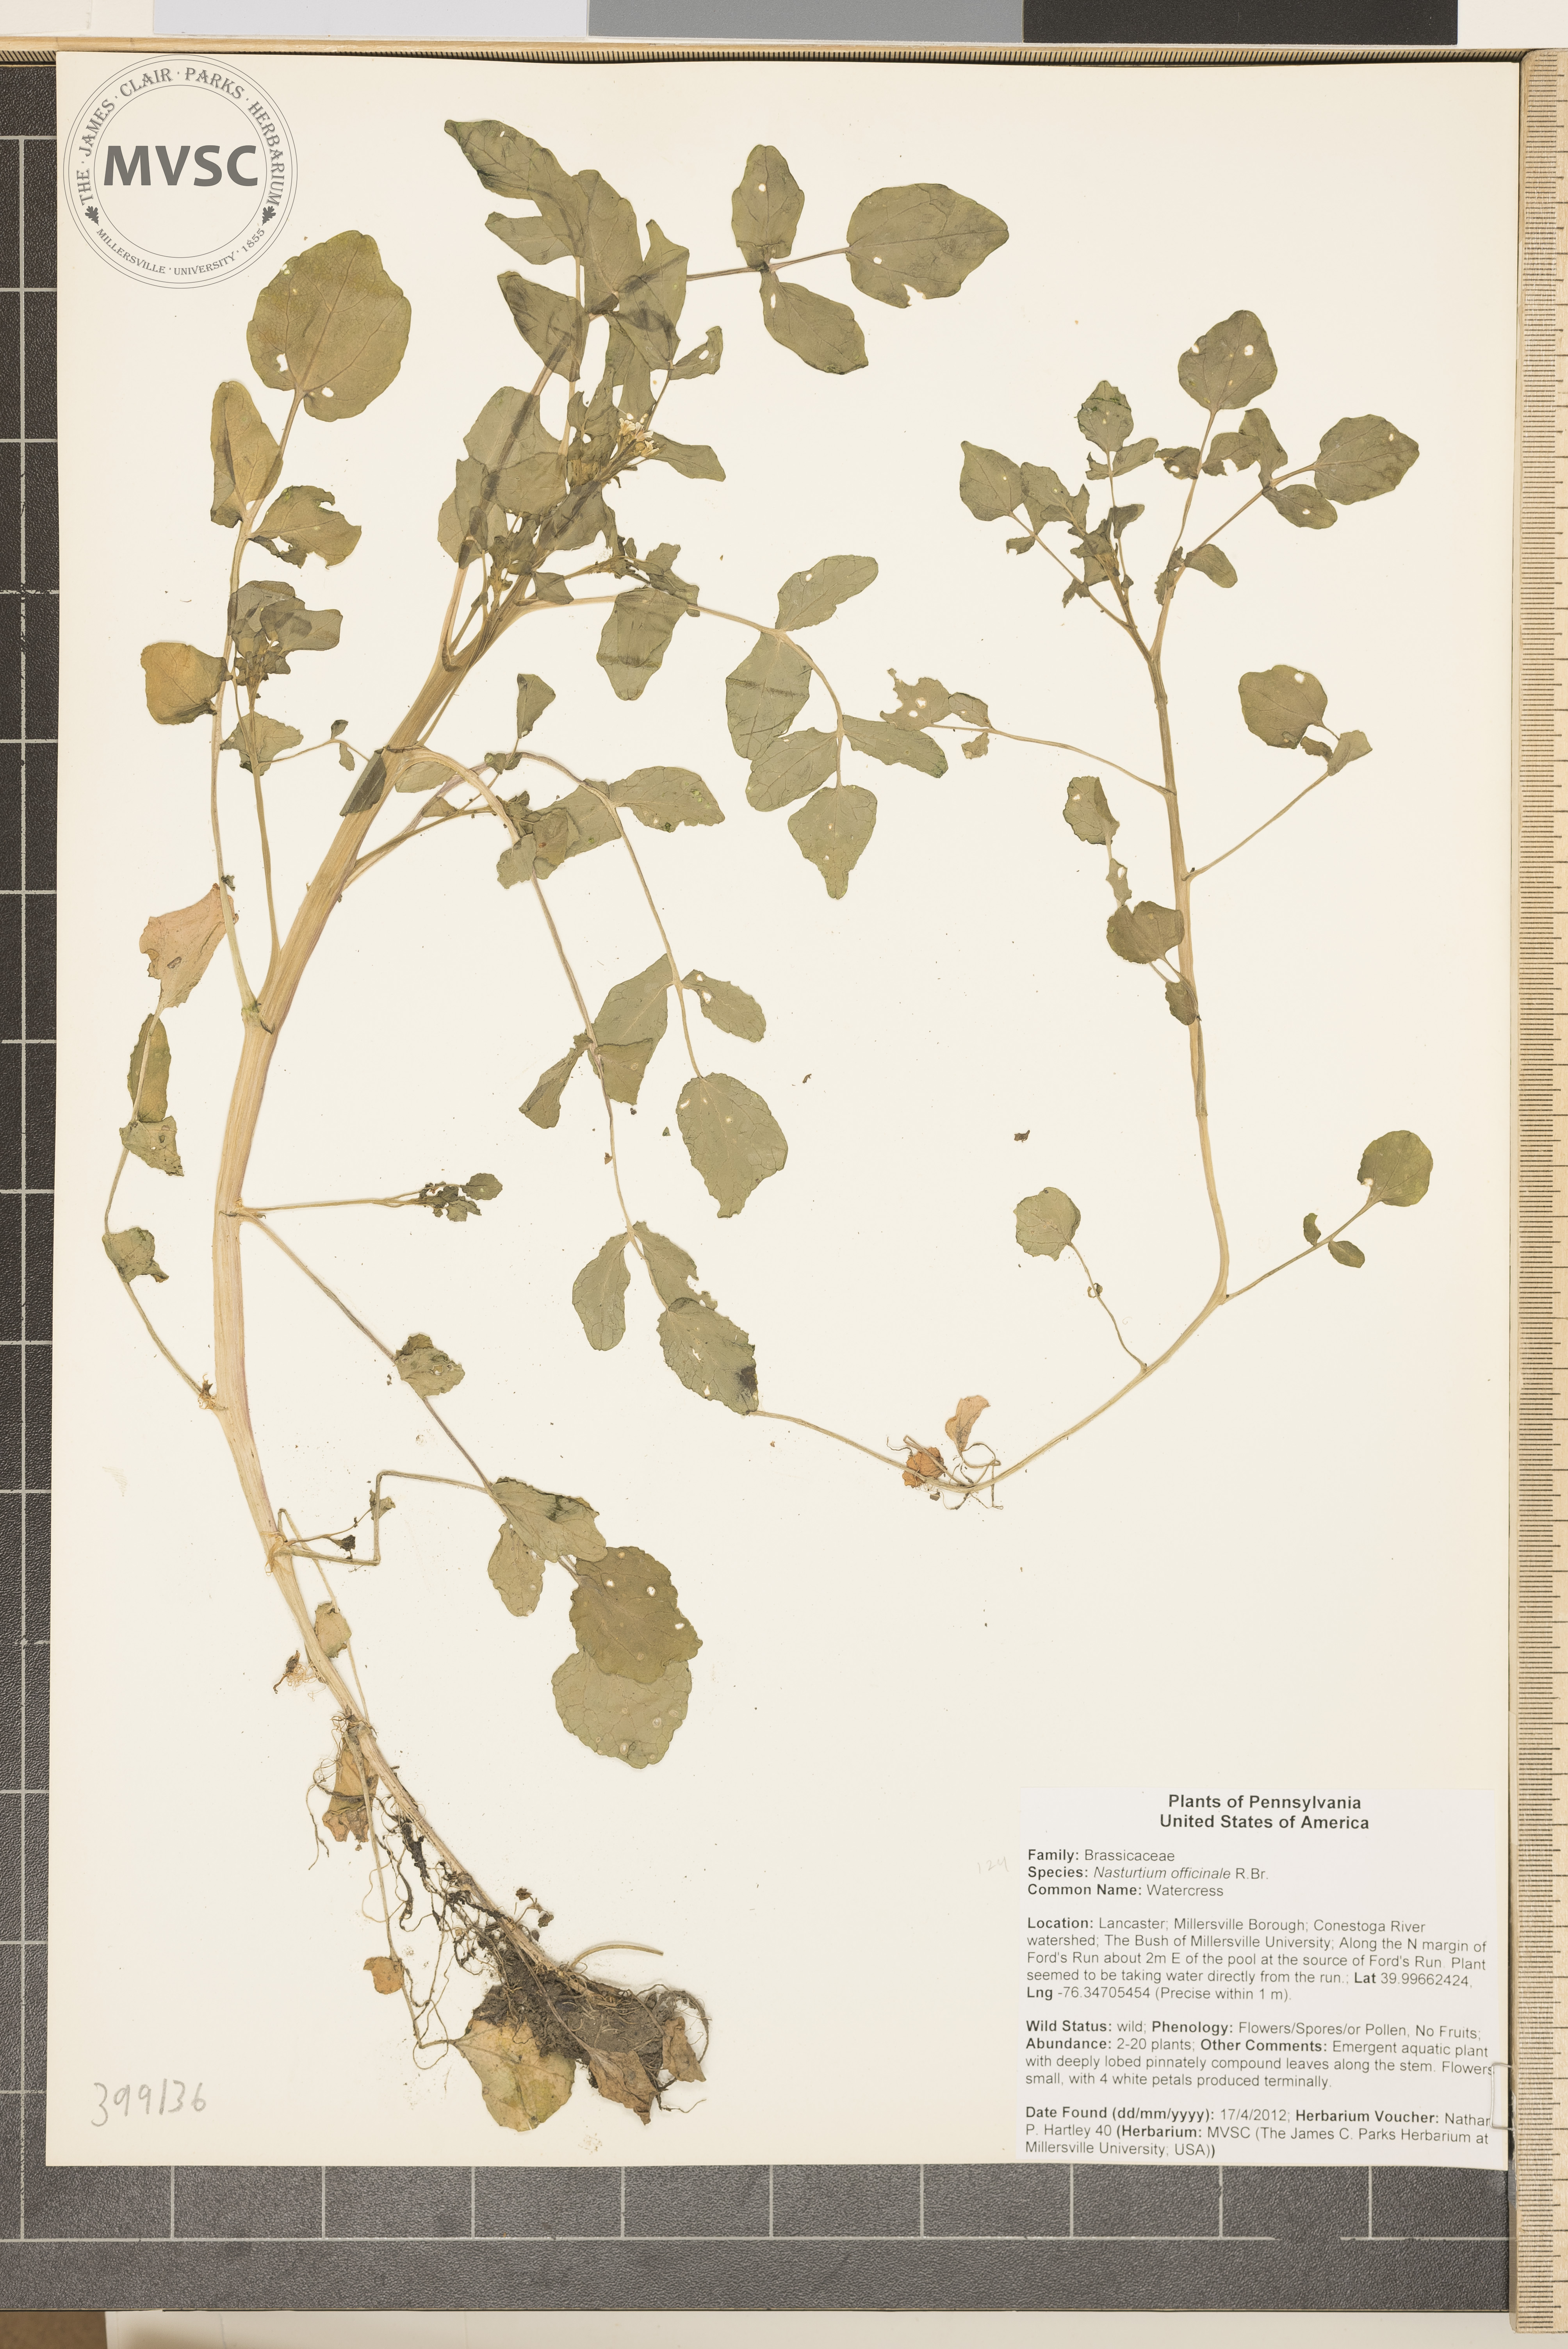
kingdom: Plantae
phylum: Tracheophyta
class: Magnoliopsida
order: Brassicales
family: Brassicaceae
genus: Nasturtium
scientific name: Nasturtium officinale
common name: Watercress
